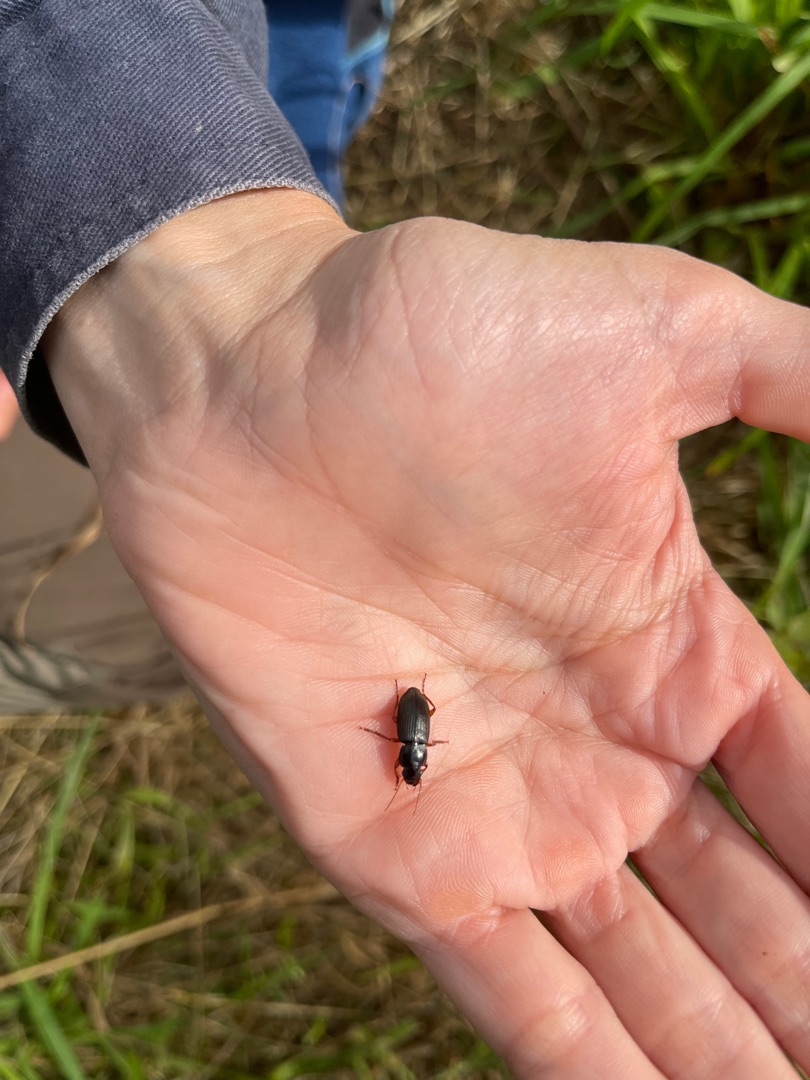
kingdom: Animalia
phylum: Arthropoda
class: Insecta
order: Coleoptera
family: Carabidae
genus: Harpalus
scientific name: Harpalus rufipes
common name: Håret markløber
